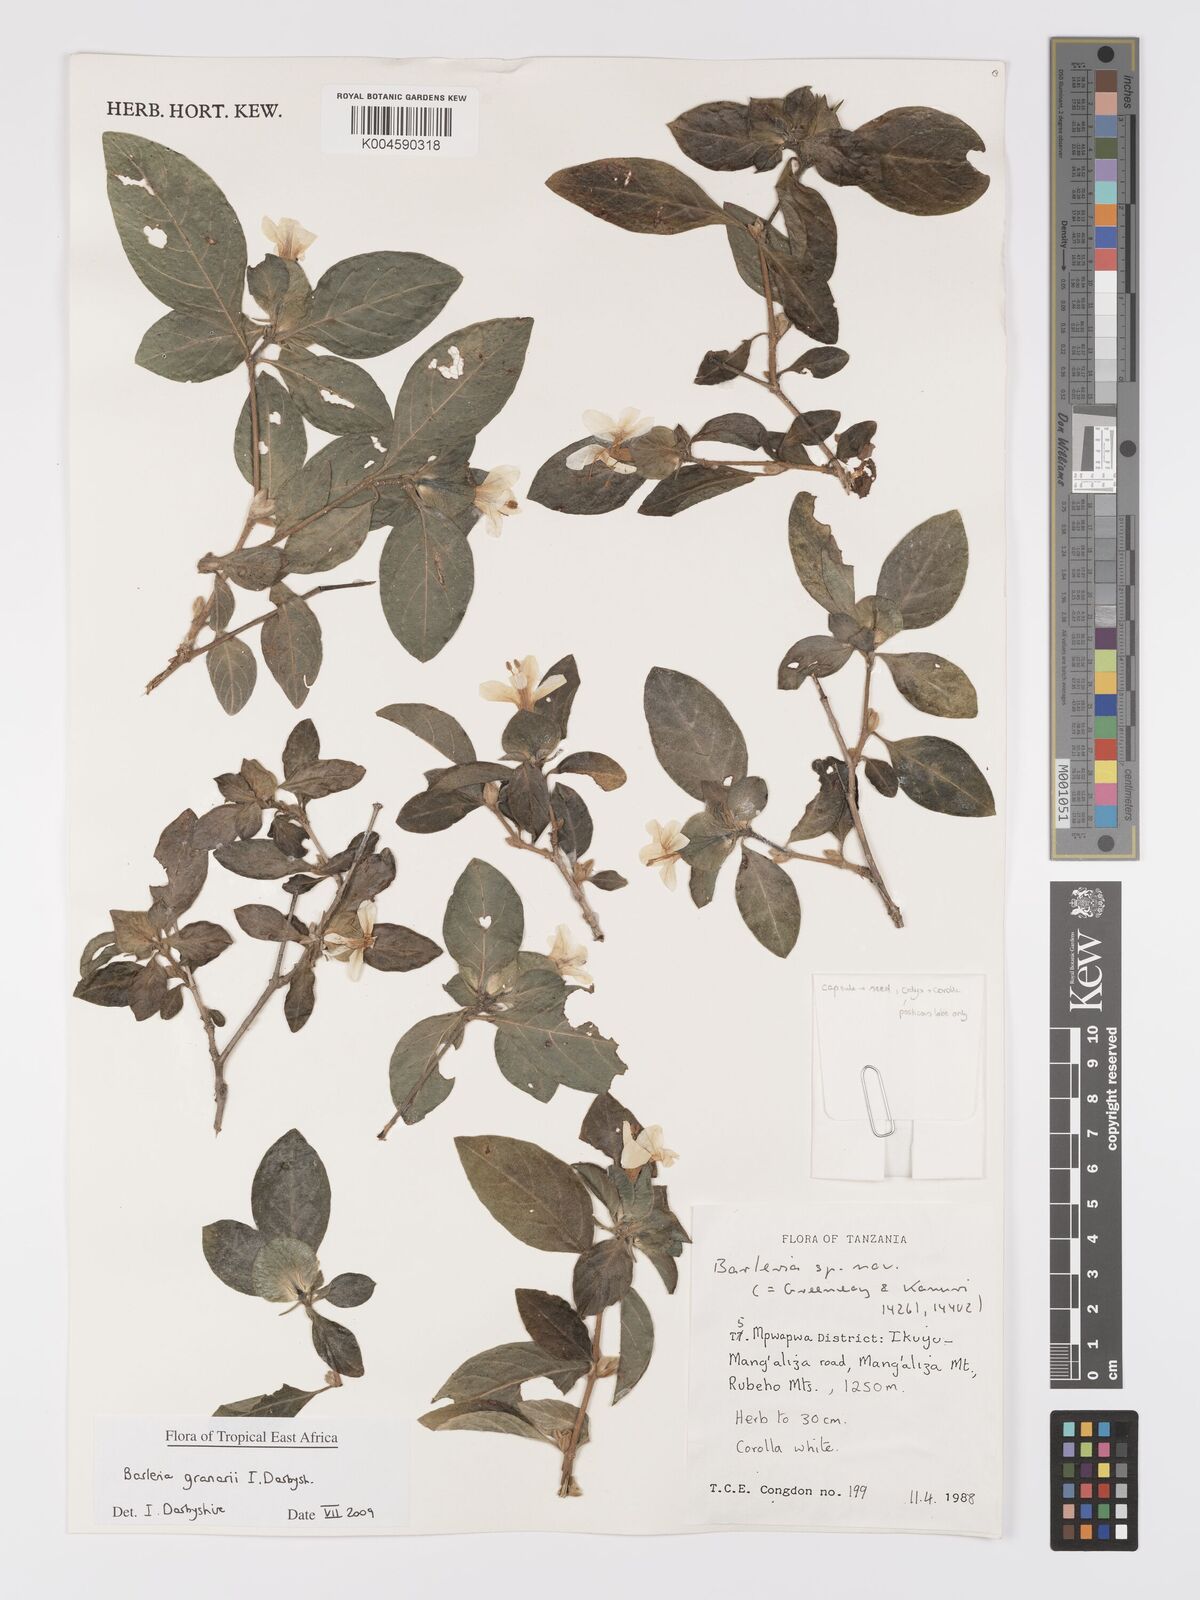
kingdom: Plantae
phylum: Tracheophyta
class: Magnoliopsida
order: Lamiales
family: Acanthaceae
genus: Barleria
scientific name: Barleria granarii
